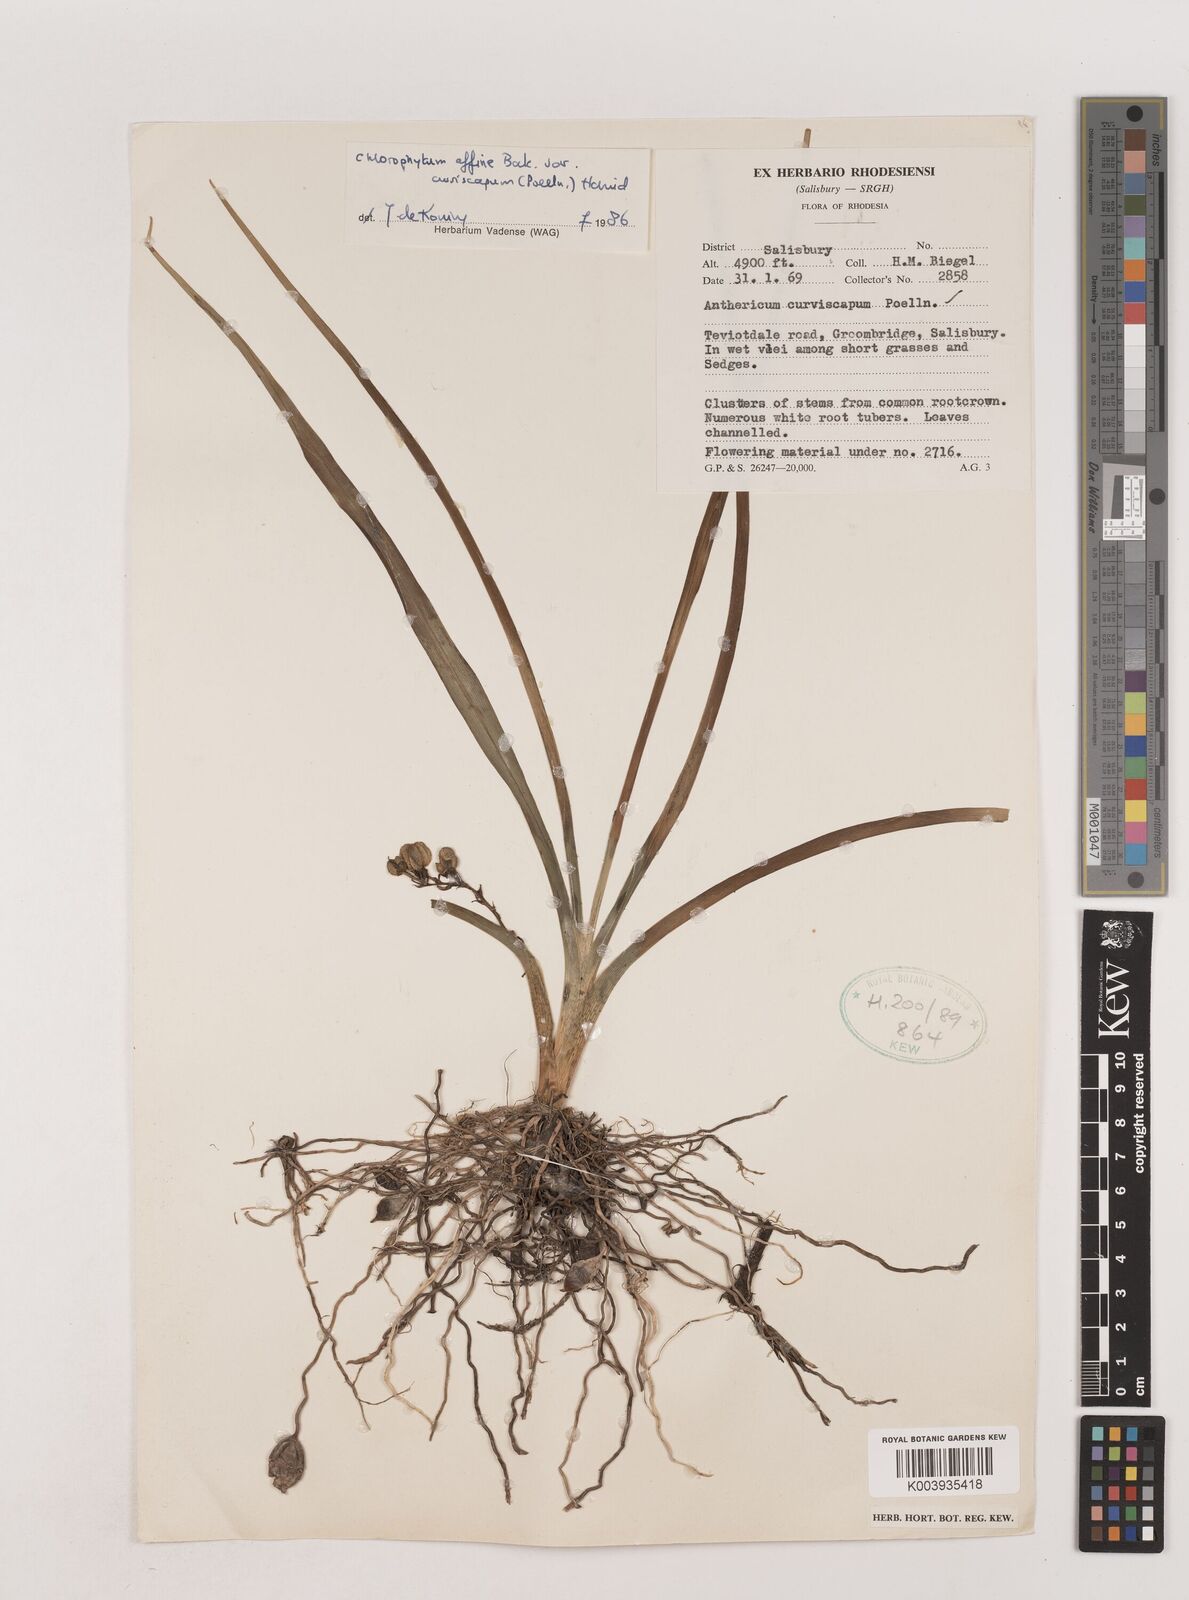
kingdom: Plantae
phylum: Tracheophyta
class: Liliopsida
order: Asparagales
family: Asparagaceae
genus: Chlorophytum
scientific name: Chlorophytum tordense
